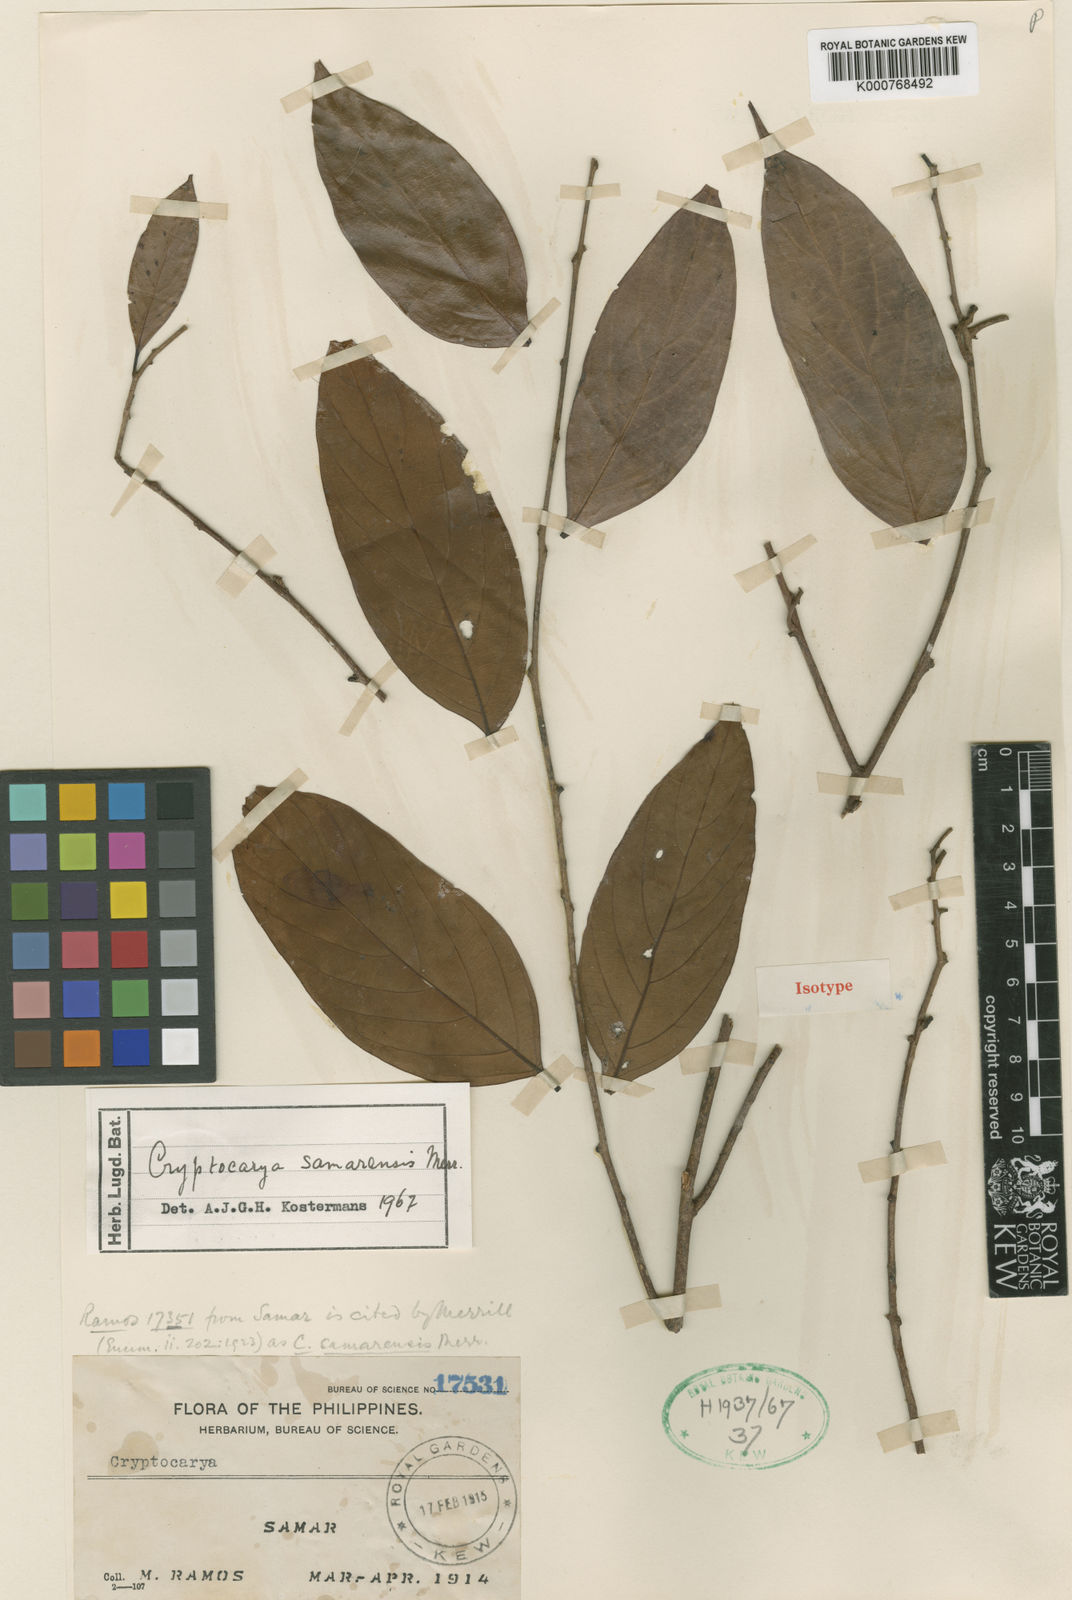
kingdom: Plantae
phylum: Tracheophyta
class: Magnoliopsida
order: Laurales
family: Lauraceae
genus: Cryptocarya
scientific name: Cryptocarya samarensis
